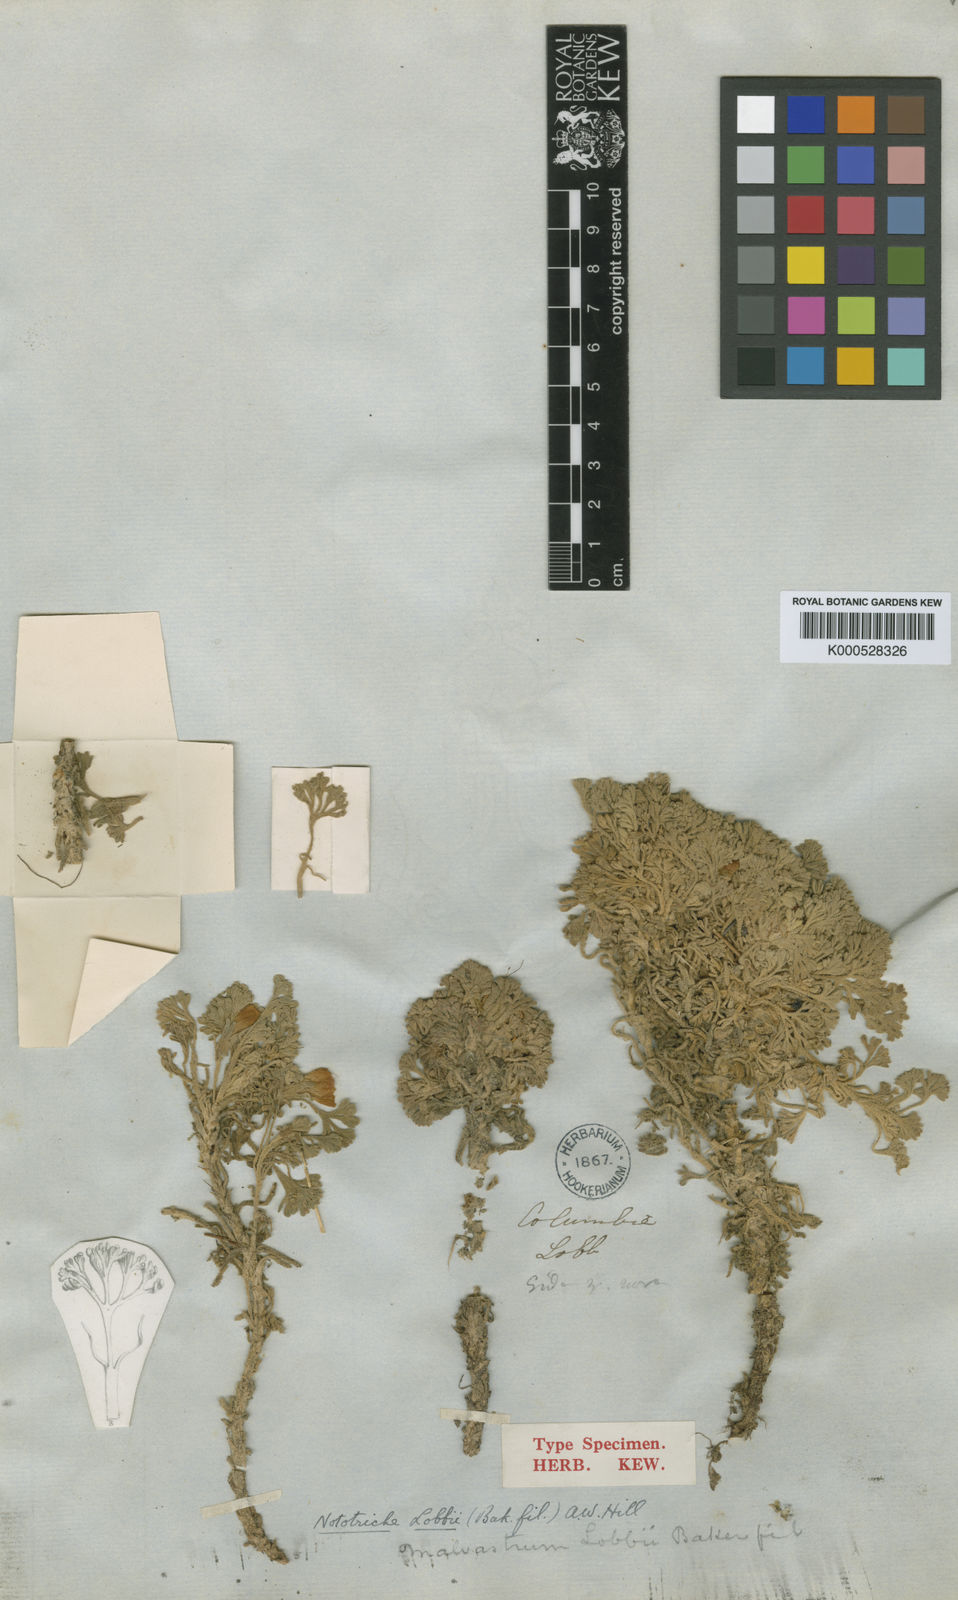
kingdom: Plantae
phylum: Tracheophyta
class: Magnoliopsida
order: Malvales
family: Malvaceae
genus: Nototriche
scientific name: Nototriche lobbii
